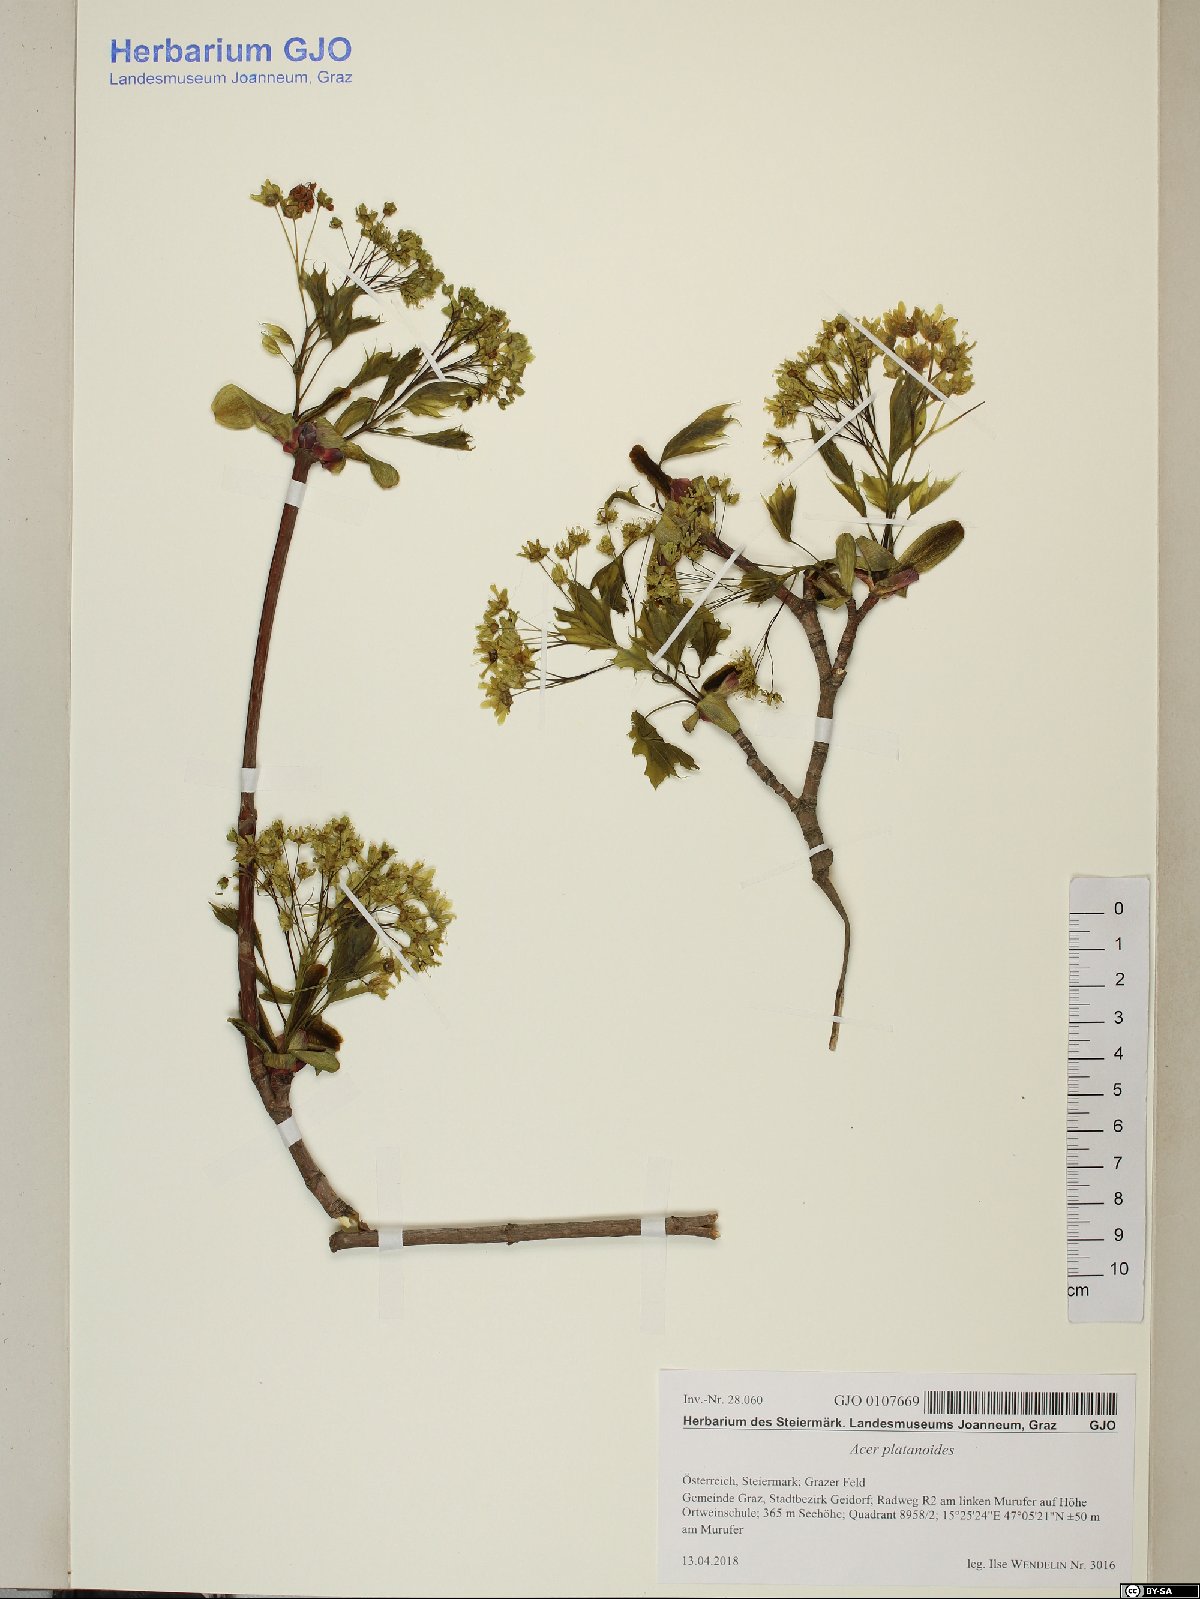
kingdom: Plantae
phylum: Tracheophyta
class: Magnoliopsida
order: Sapindales
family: Sapindaceae
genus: Acer
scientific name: Acer platanoides
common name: Norway maple
